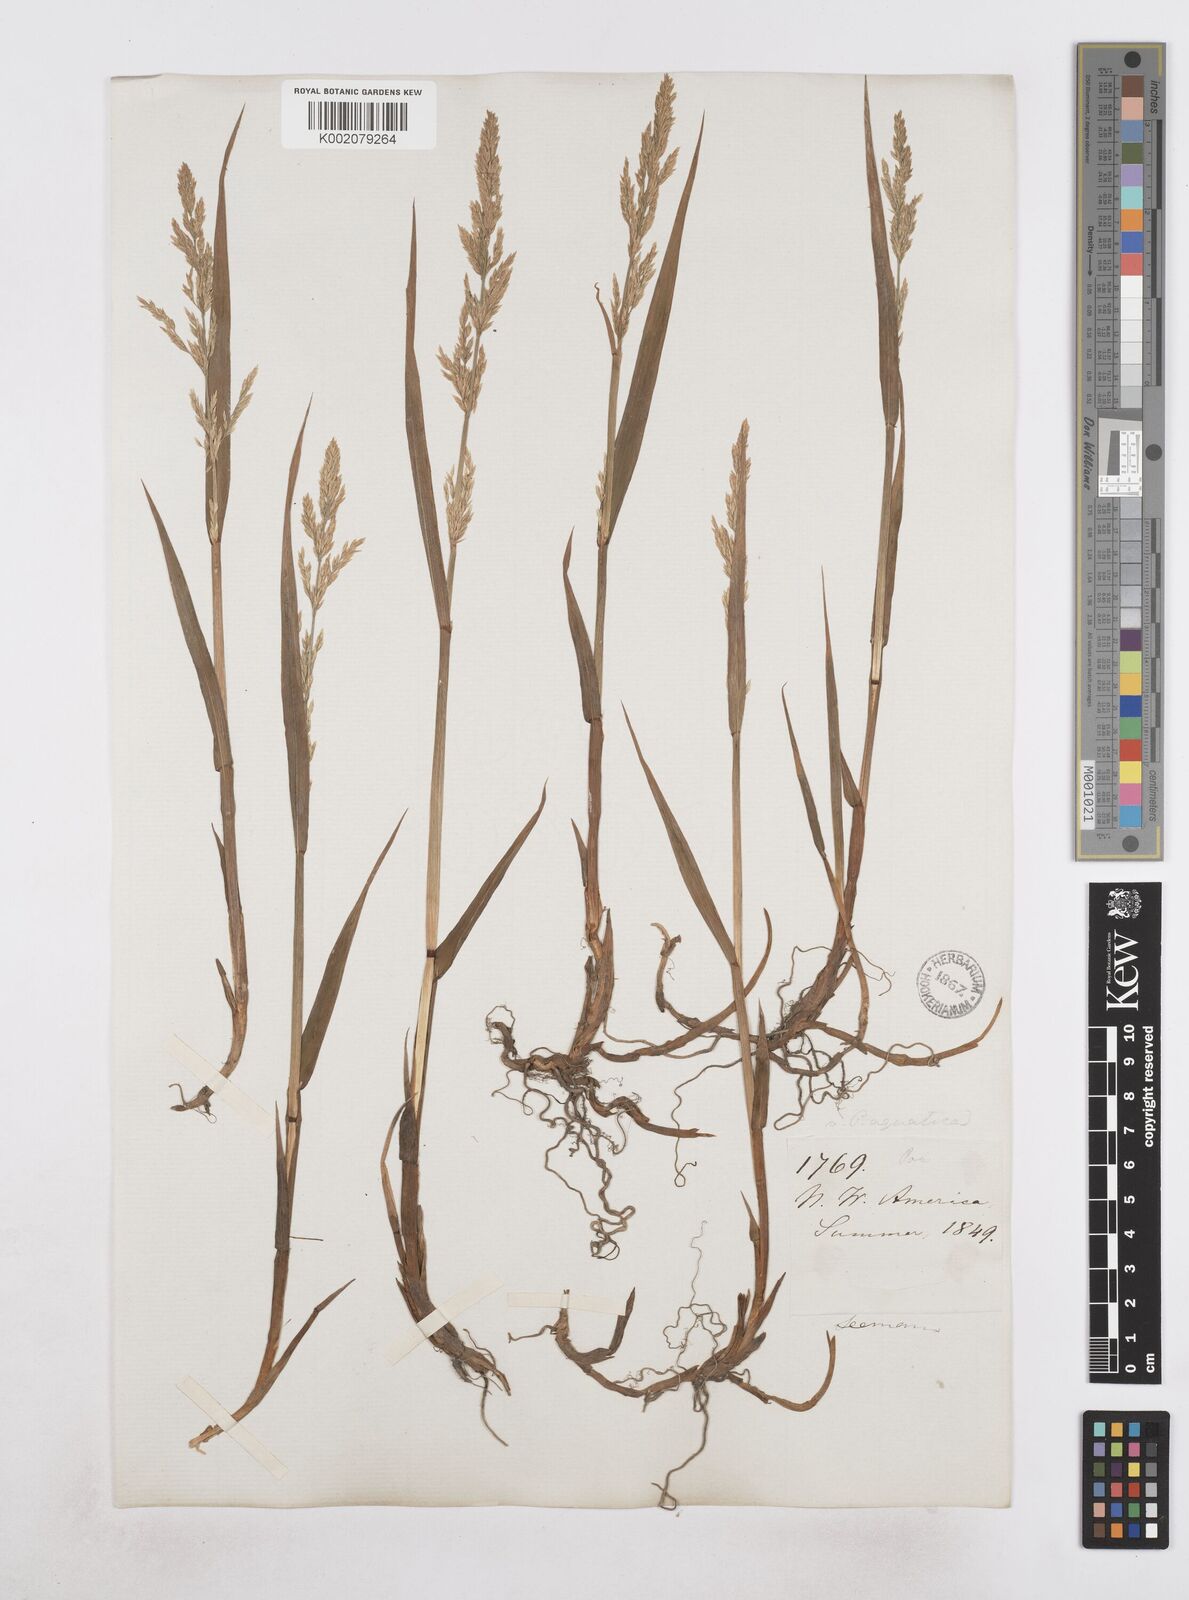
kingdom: Plantae
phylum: Tracheophyta
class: Liliopsida
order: Poales
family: Poaceae
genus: Arctagrostis
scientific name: Arctagrostis latifolia
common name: Arctic grass
